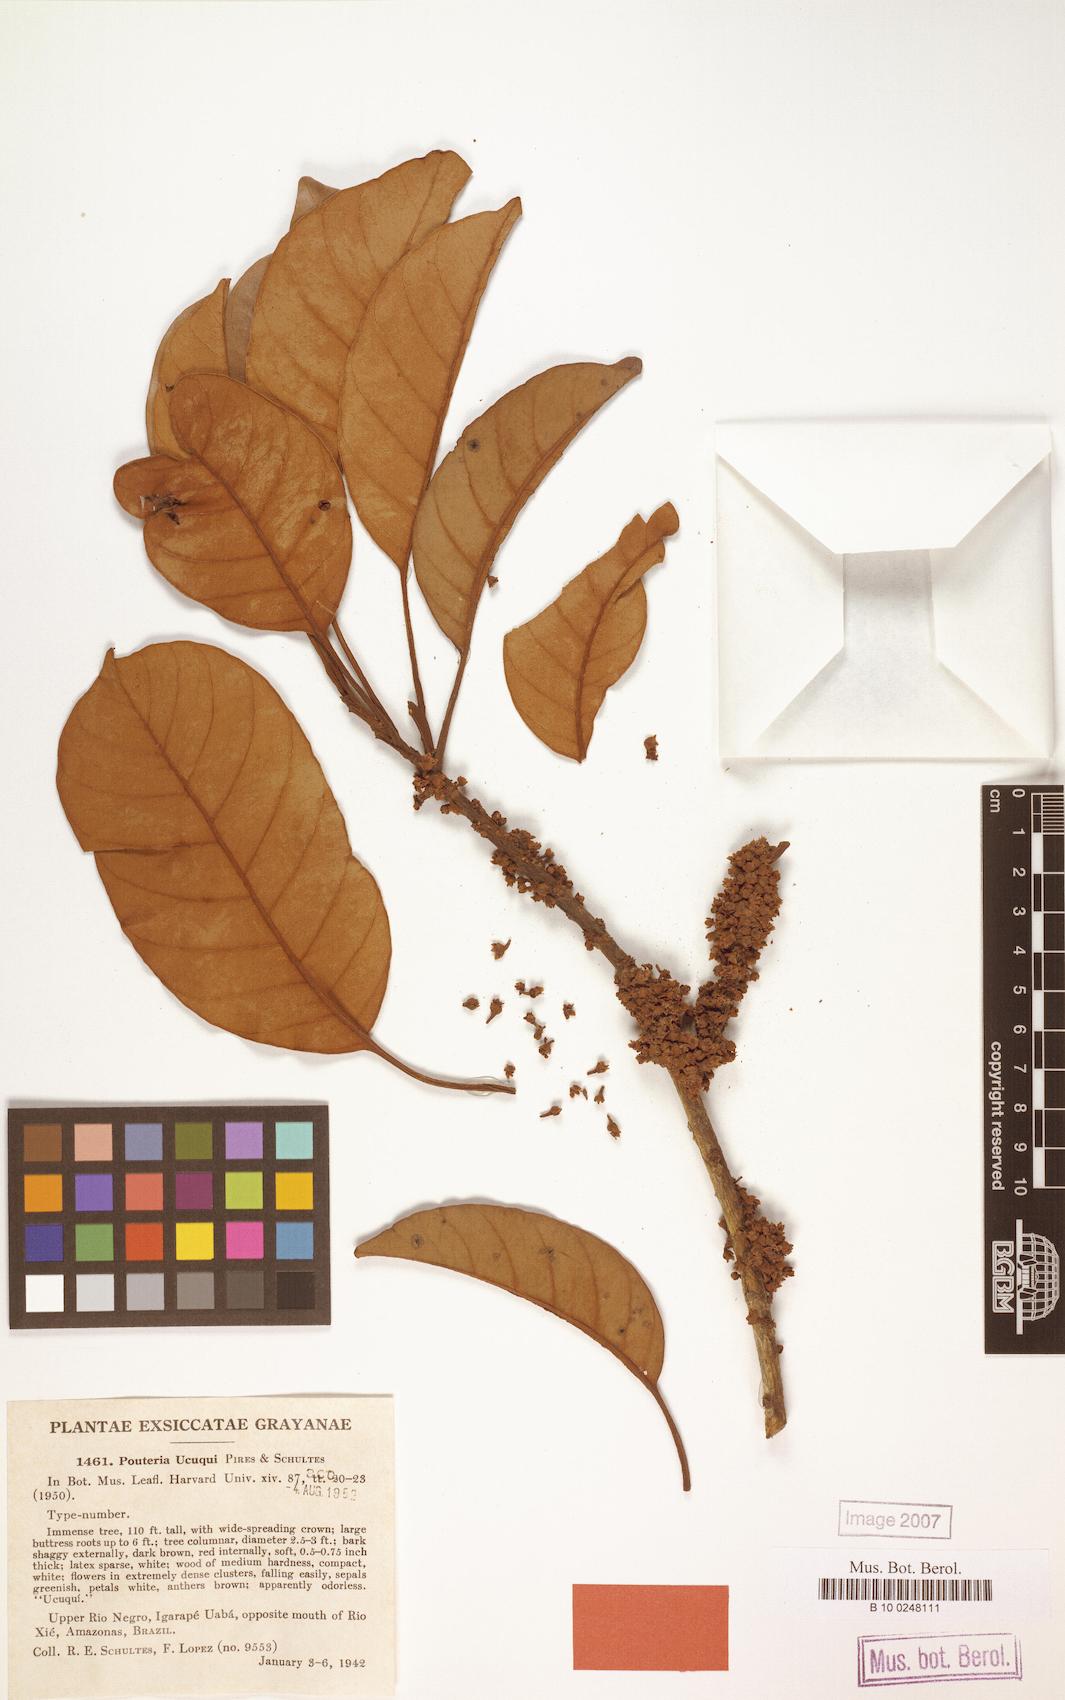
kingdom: Plantae
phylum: Tracheophyta
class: Magnoliopsida
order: Ericales
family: Sapotaceae
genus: Pouteria
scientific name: Pouteria ucuqui
